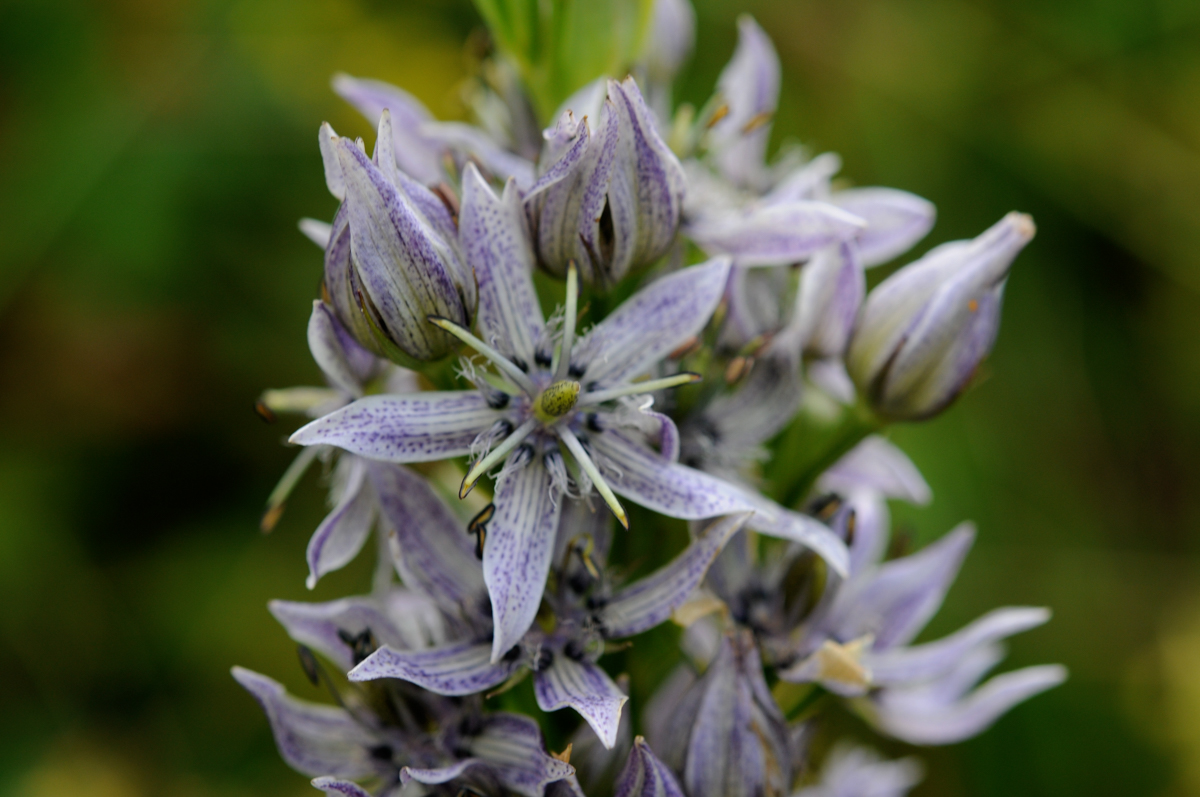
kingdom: Plantae
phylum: Tracheophyta
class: Magnoliopsida
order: Gentianales
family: Gentianaceae
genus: Swertia
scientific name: Swertia iberica
